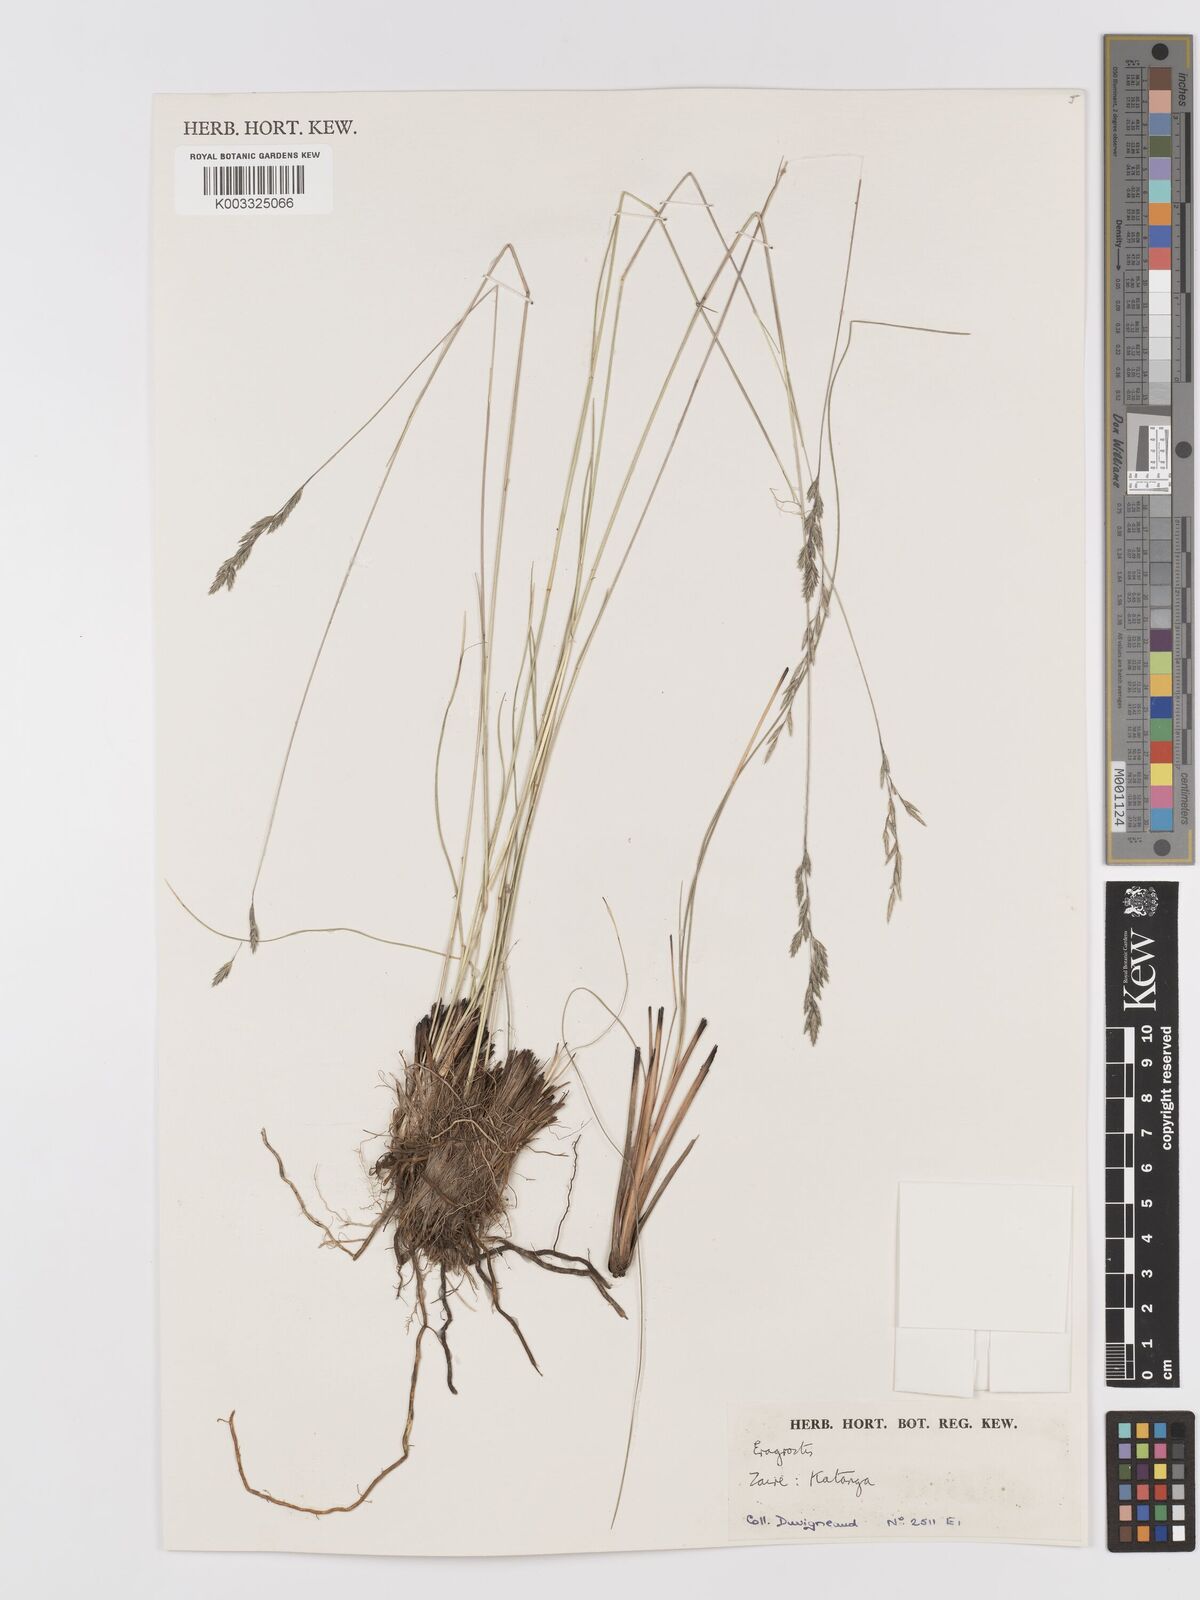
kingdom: Plantae
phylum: Tracheophyta
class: Liliopsida
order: Poales
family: Poaceae
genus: Eragrostis
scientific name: Eragrostis
